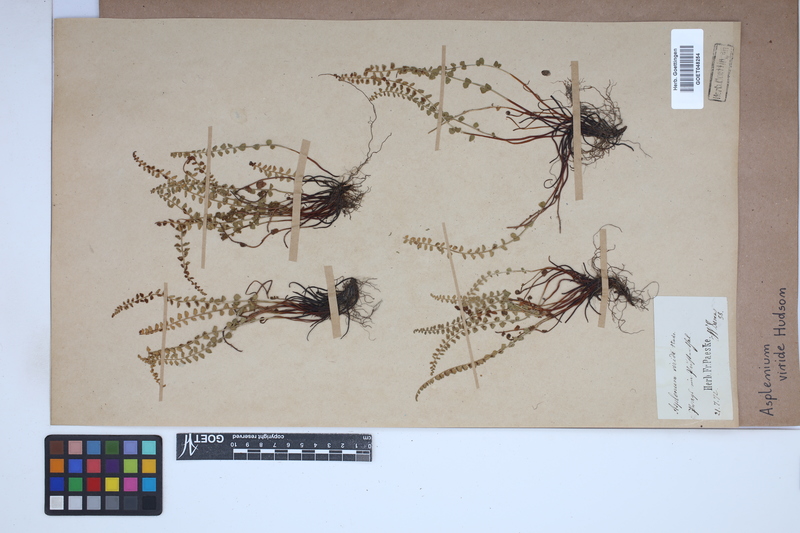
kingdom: Plantae
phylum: Tracheophyta
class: Polypodiopsida
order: Polypodiales
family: Aspleniaceae
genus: Asplenium
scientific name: Asplenium viride
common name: Green spleenwort
